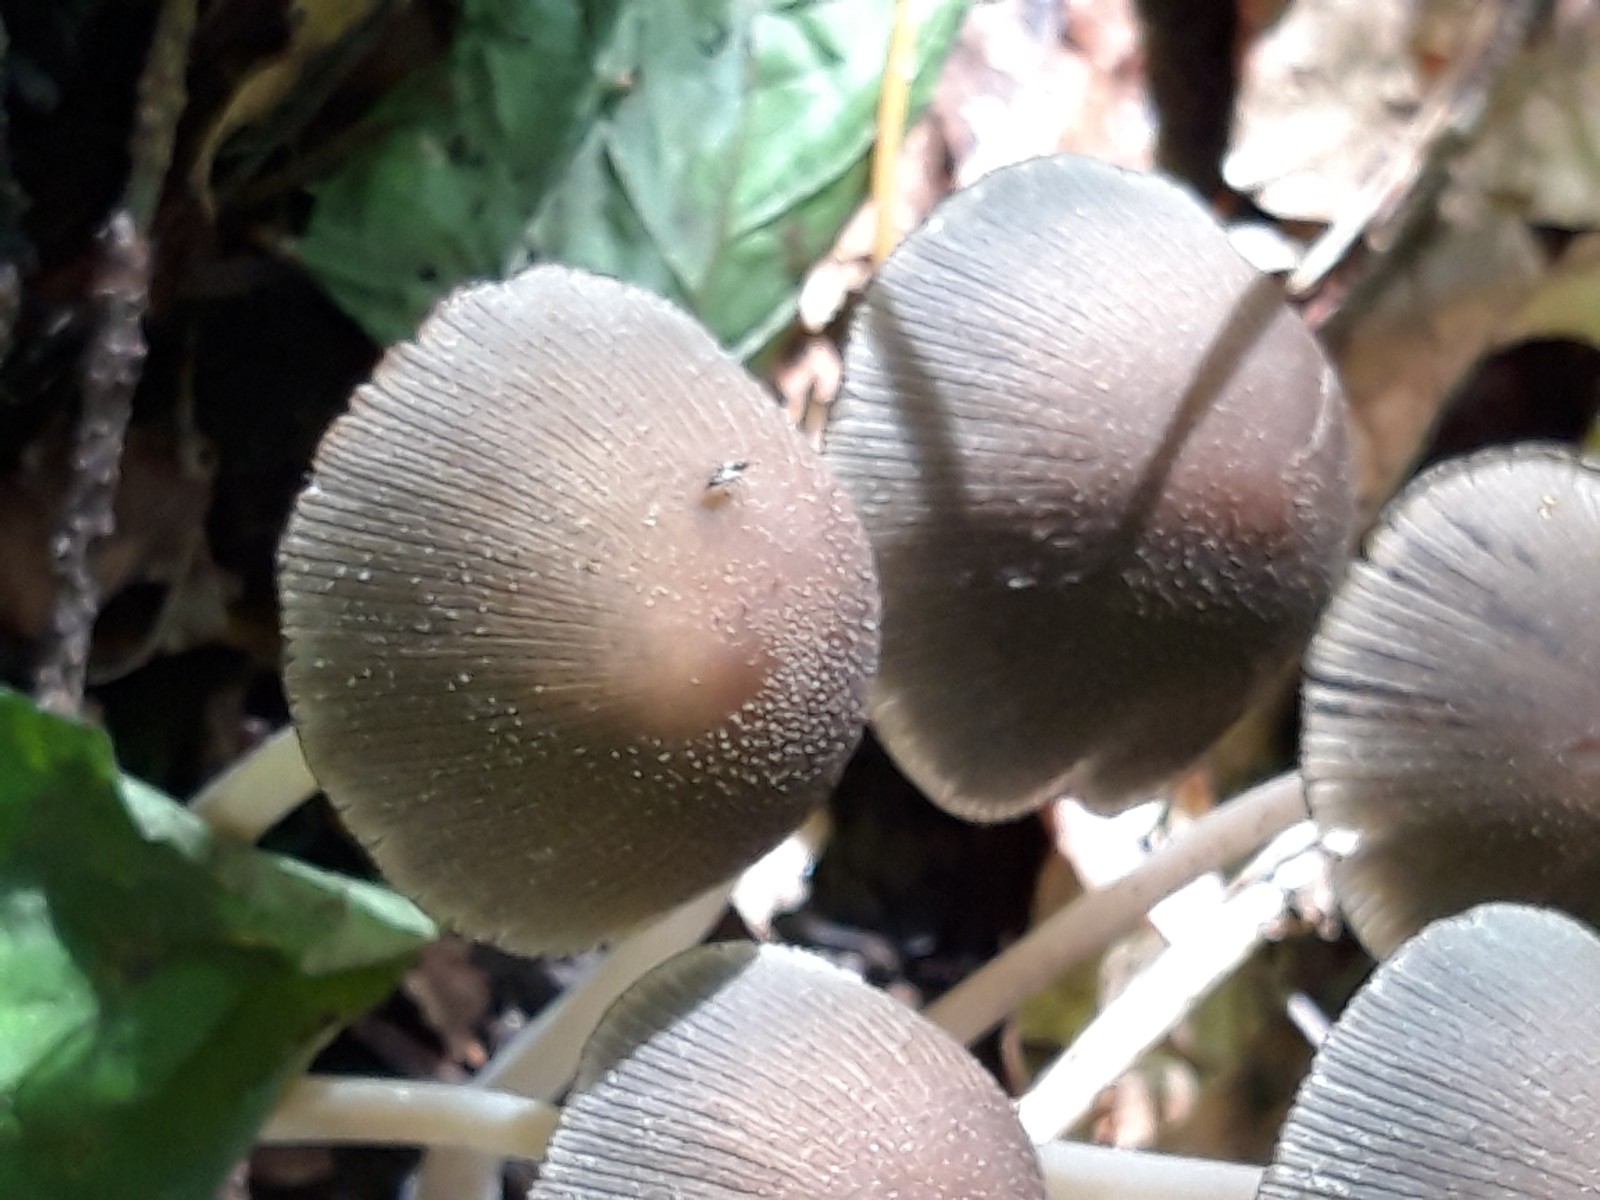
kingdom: Fungi
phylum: Basidiomycota
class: Agaricomycetes
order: Agaricales
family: Psathyrellaceae
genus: Coprinellus
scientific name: Coprinellus micaceus
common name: glimmer-blækhat
